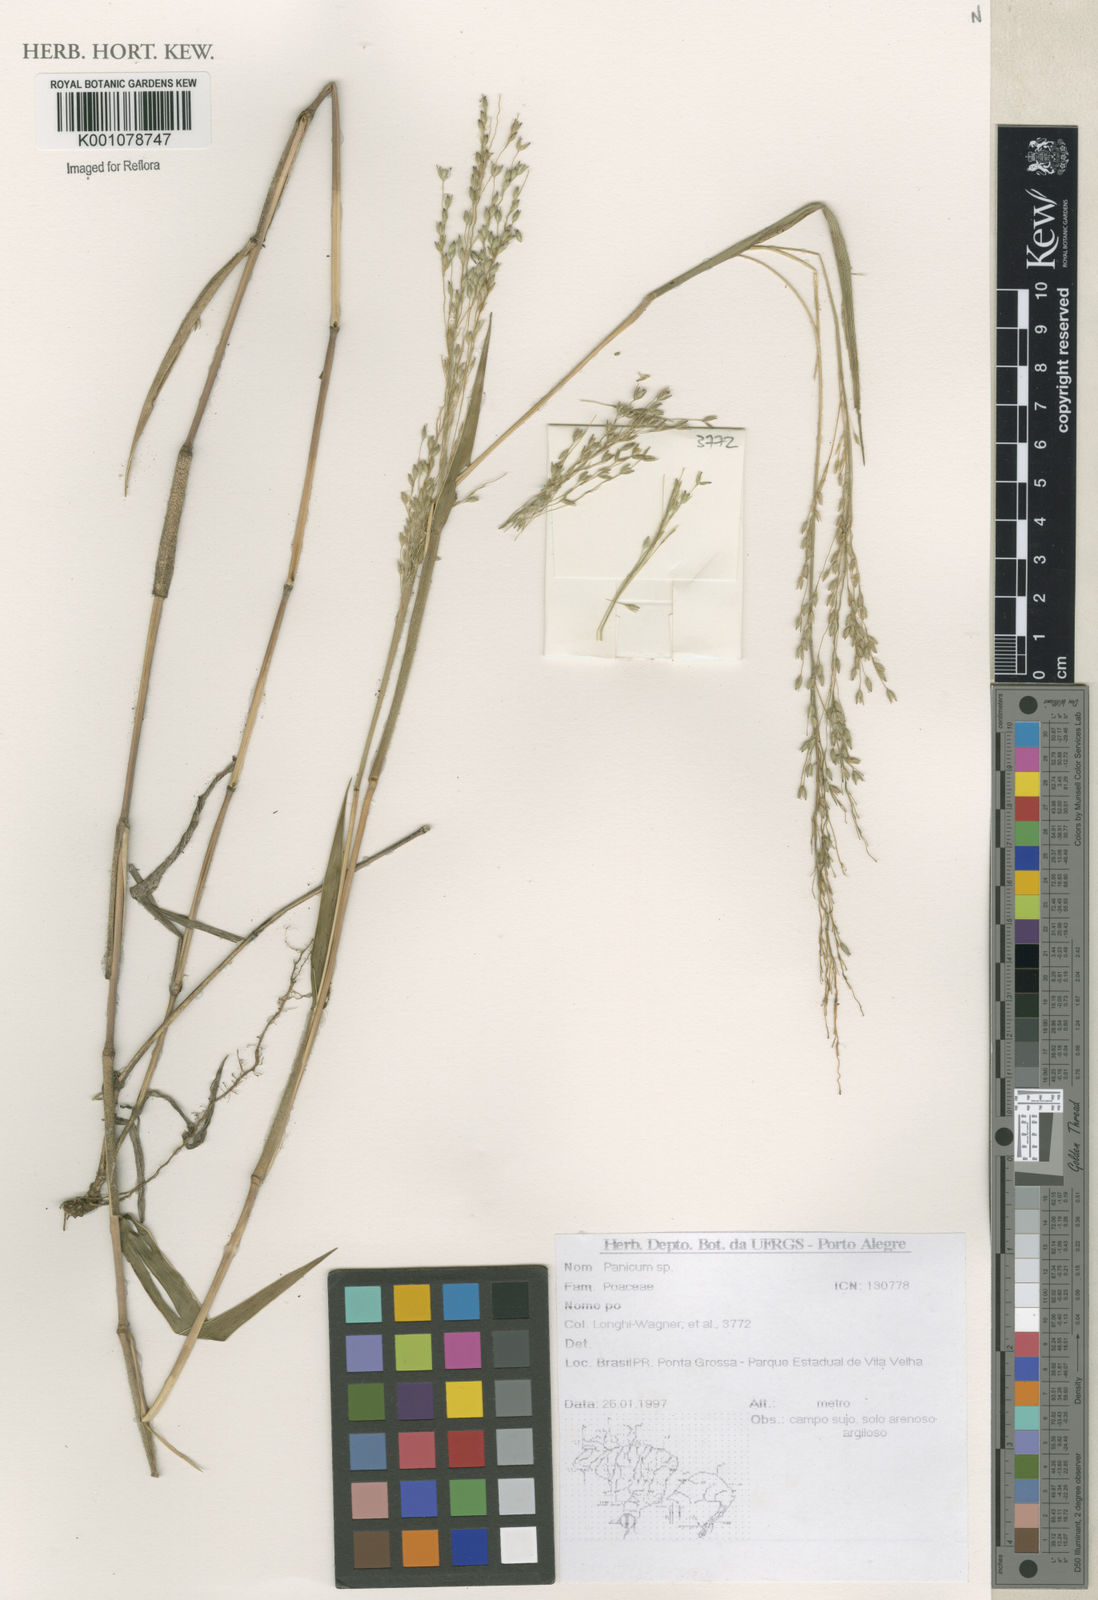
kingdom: Plantae
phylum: Tracheophyta
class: Liliopsida
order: Poales
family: Poaceae
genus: Panicum
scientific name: Panicum
